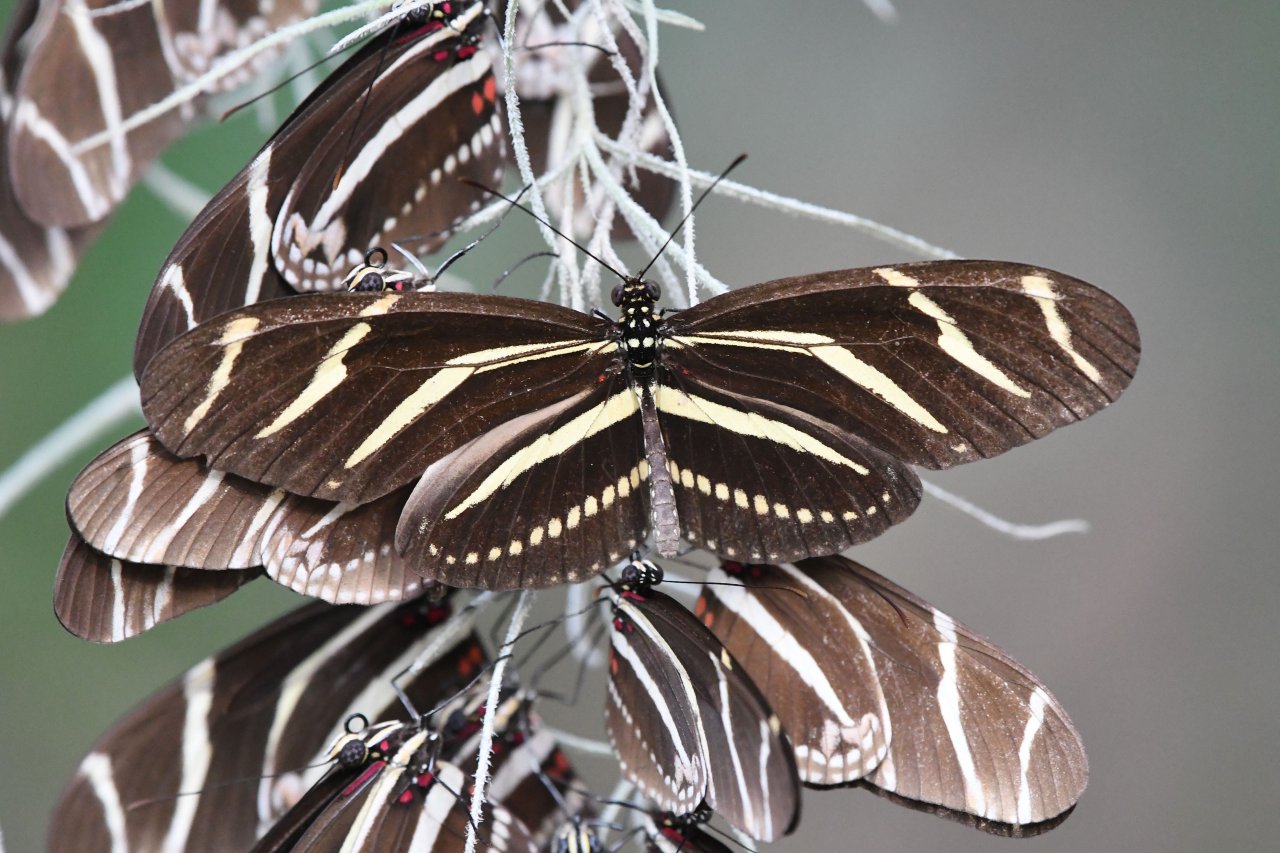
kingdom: Animalia
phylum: Arthropoda
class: Insecta
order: Lepidoptera
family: Nymphalidae
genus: Heliconius
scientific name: Heliconius charithonia
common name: Zebra Longwing
